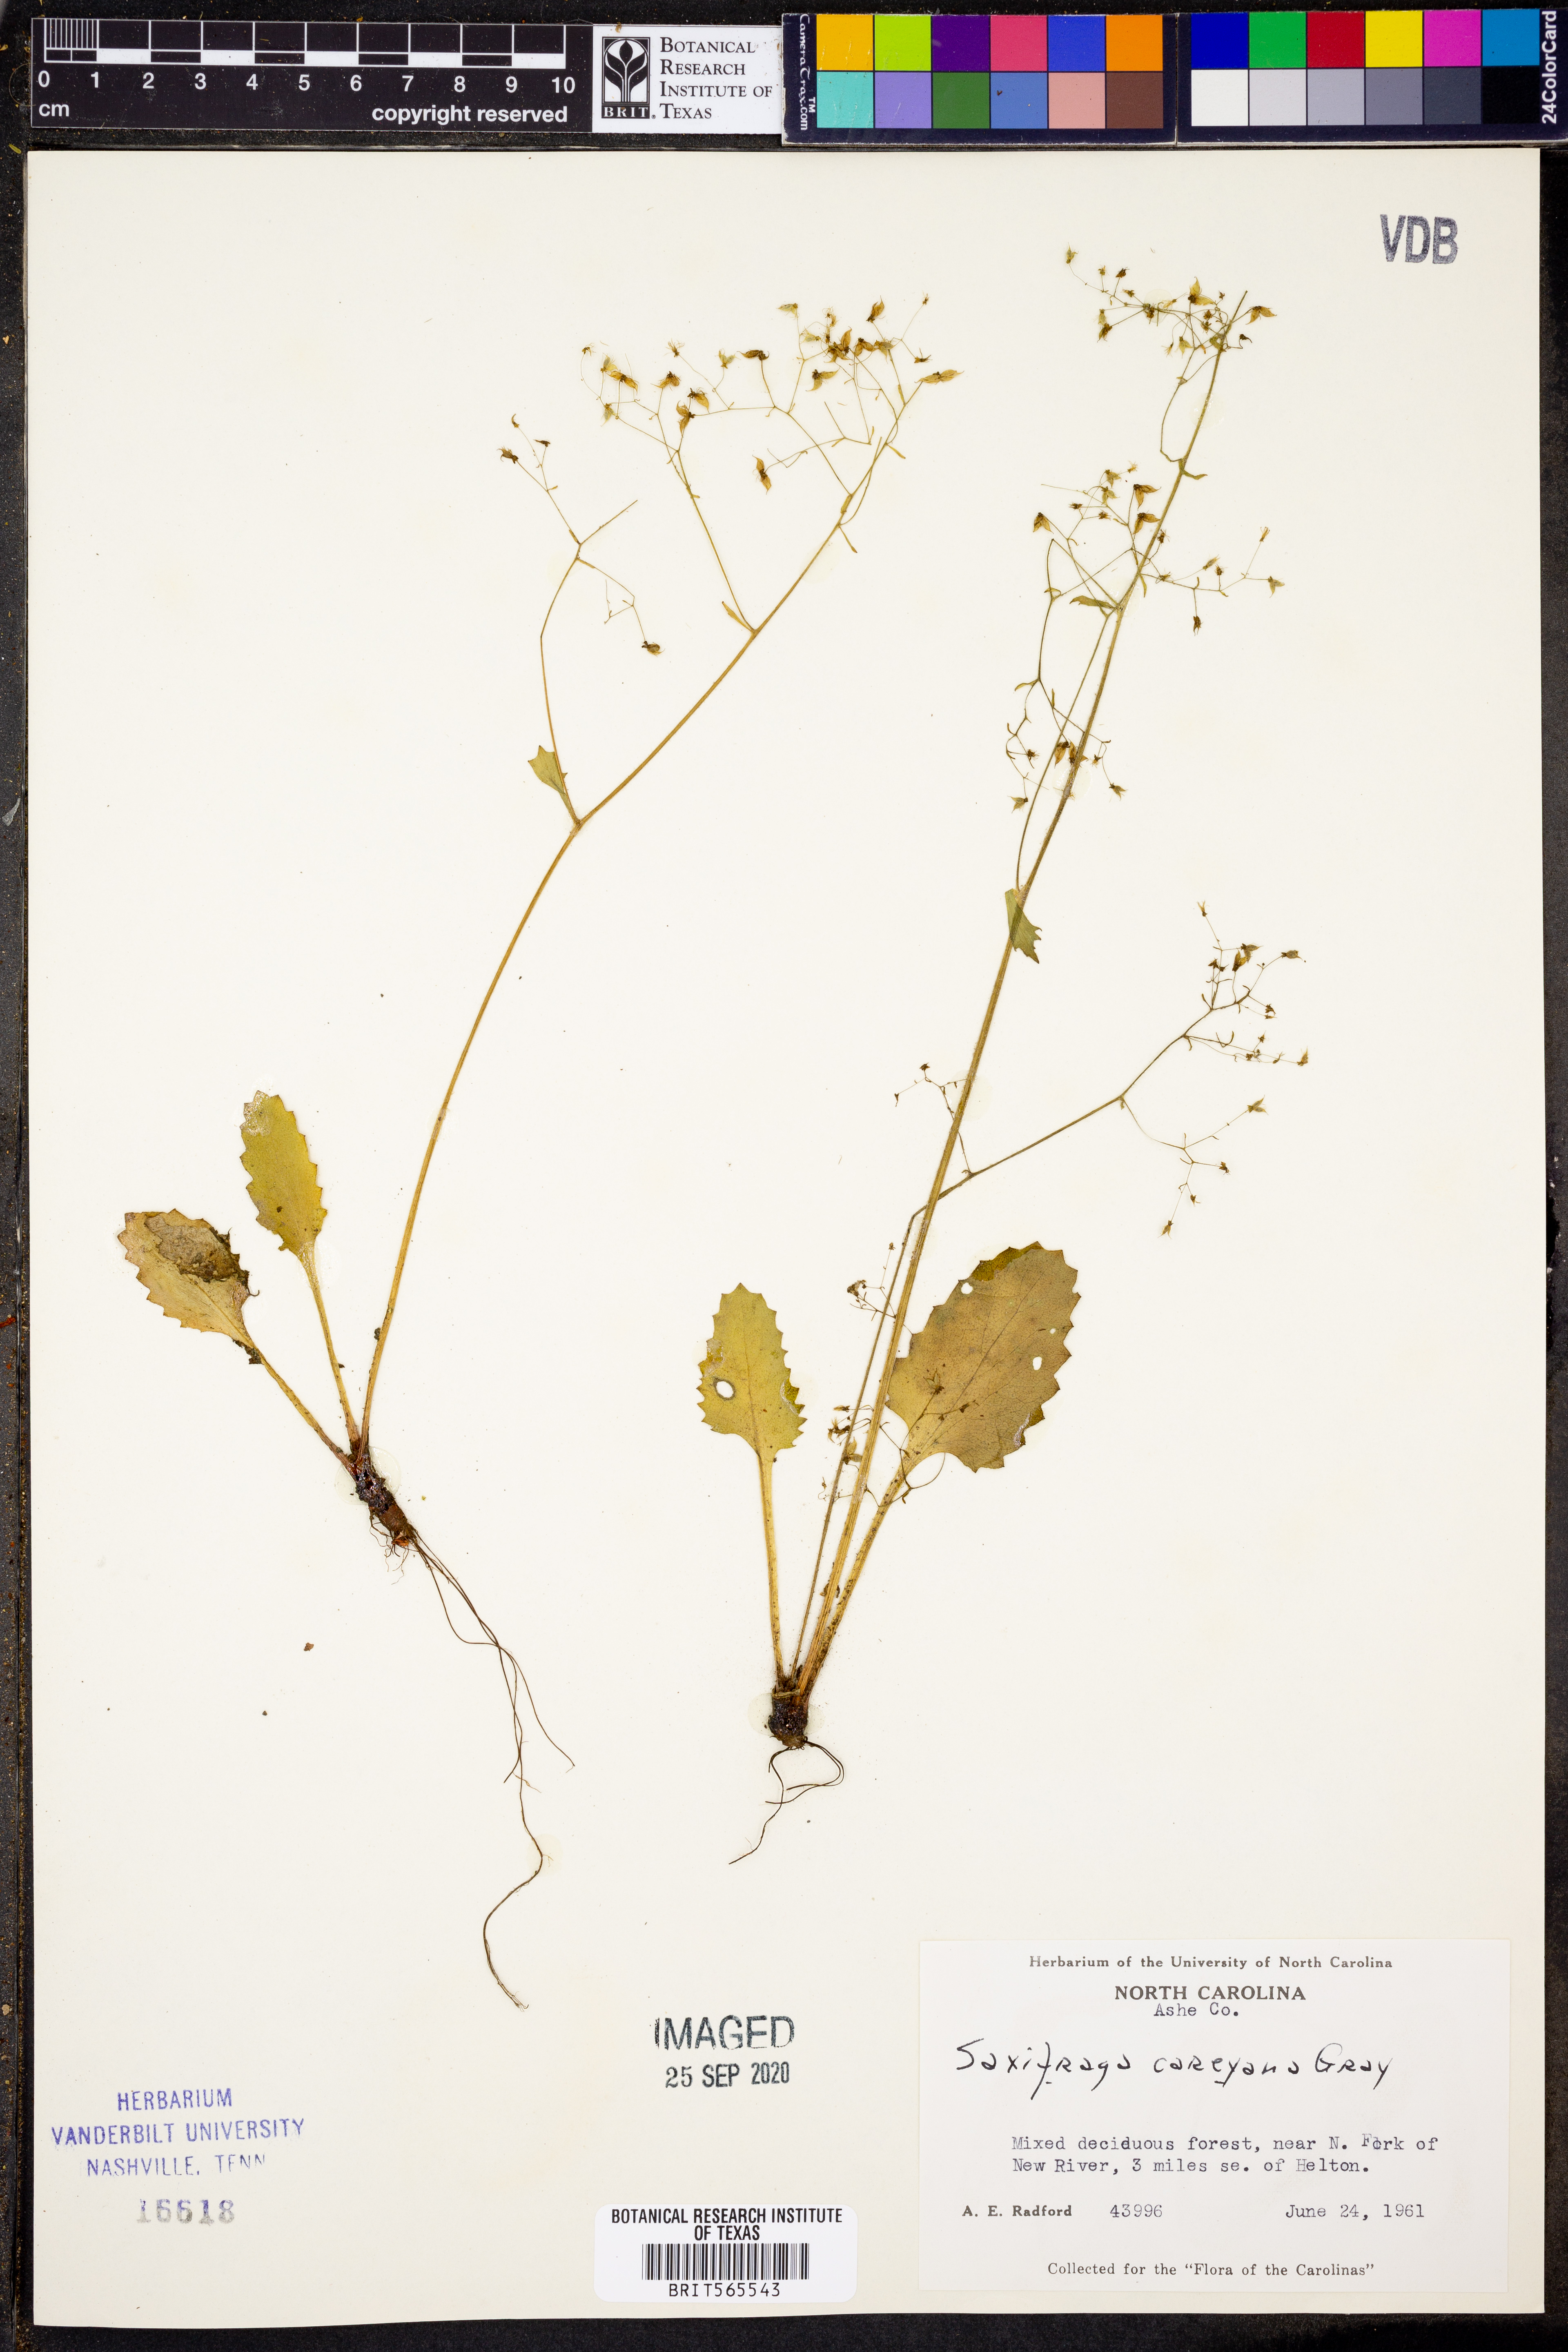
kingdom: Plantae
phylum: Tracheophyta
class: Magnoliopsida
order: Saxifragales
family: Saxifragaceae
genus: Micranthes
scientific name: Micranthes careyana
